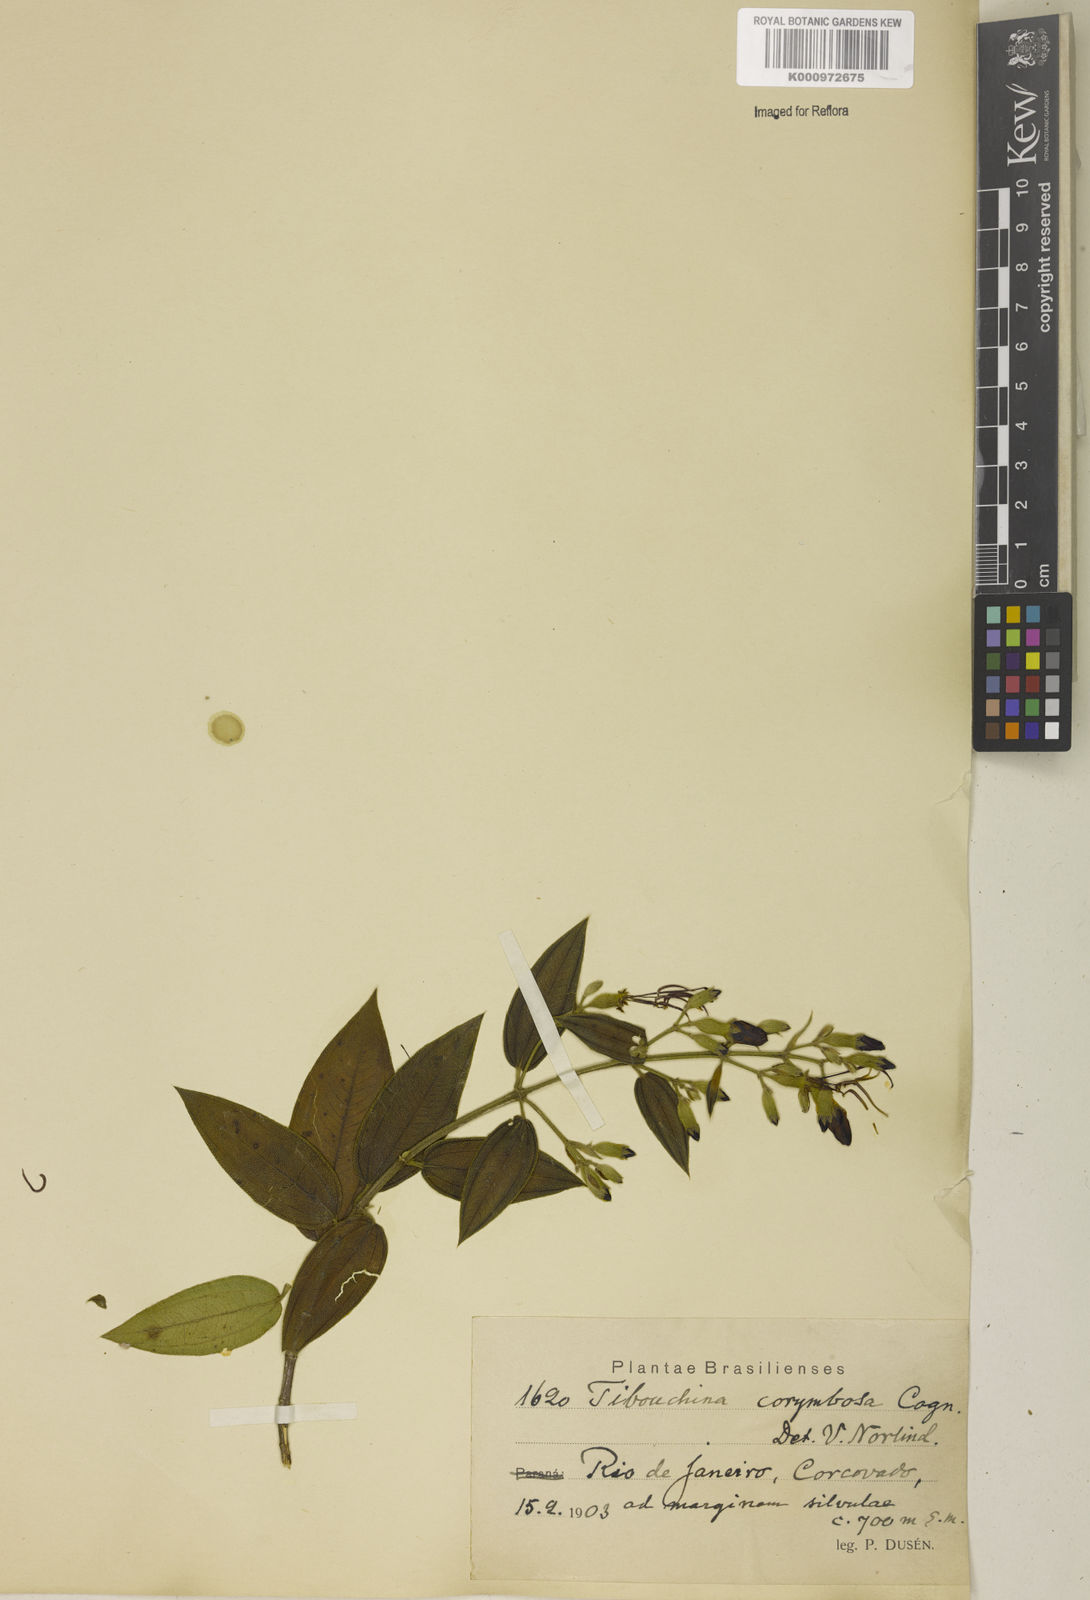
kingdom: Plantae
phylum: Tracheophyta
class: Magnoliopsida
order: Myrtales
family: Melastomataceae
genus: Pleroma
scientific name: Pleroma vimineum
